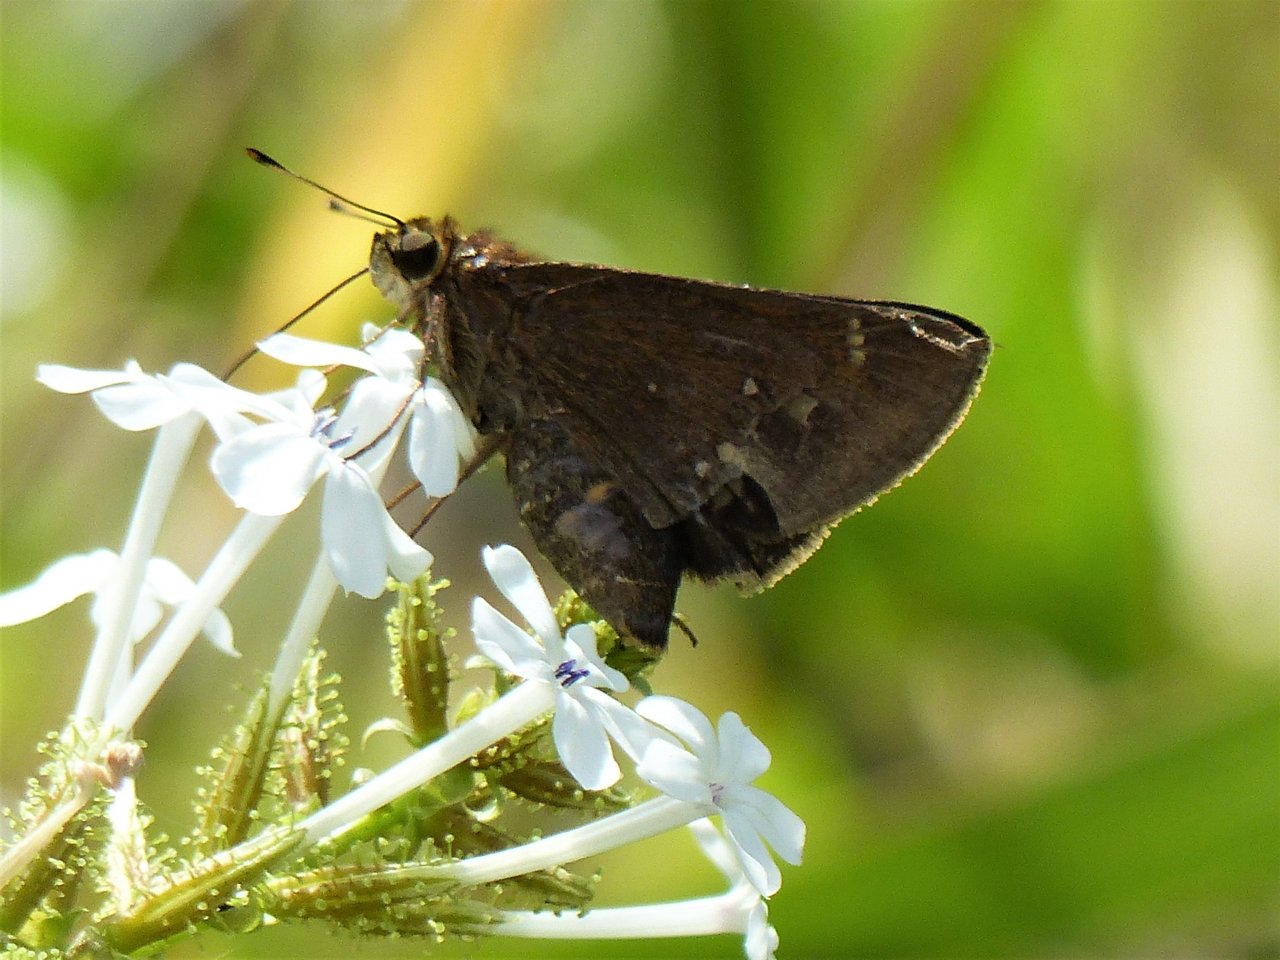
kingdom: Animalia
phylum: Arthropoda
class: Insecta
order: Lepidoptera
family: Hesperiidae
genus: Decinea
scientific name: Decinea percosius
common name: Double-dotted Skipper
